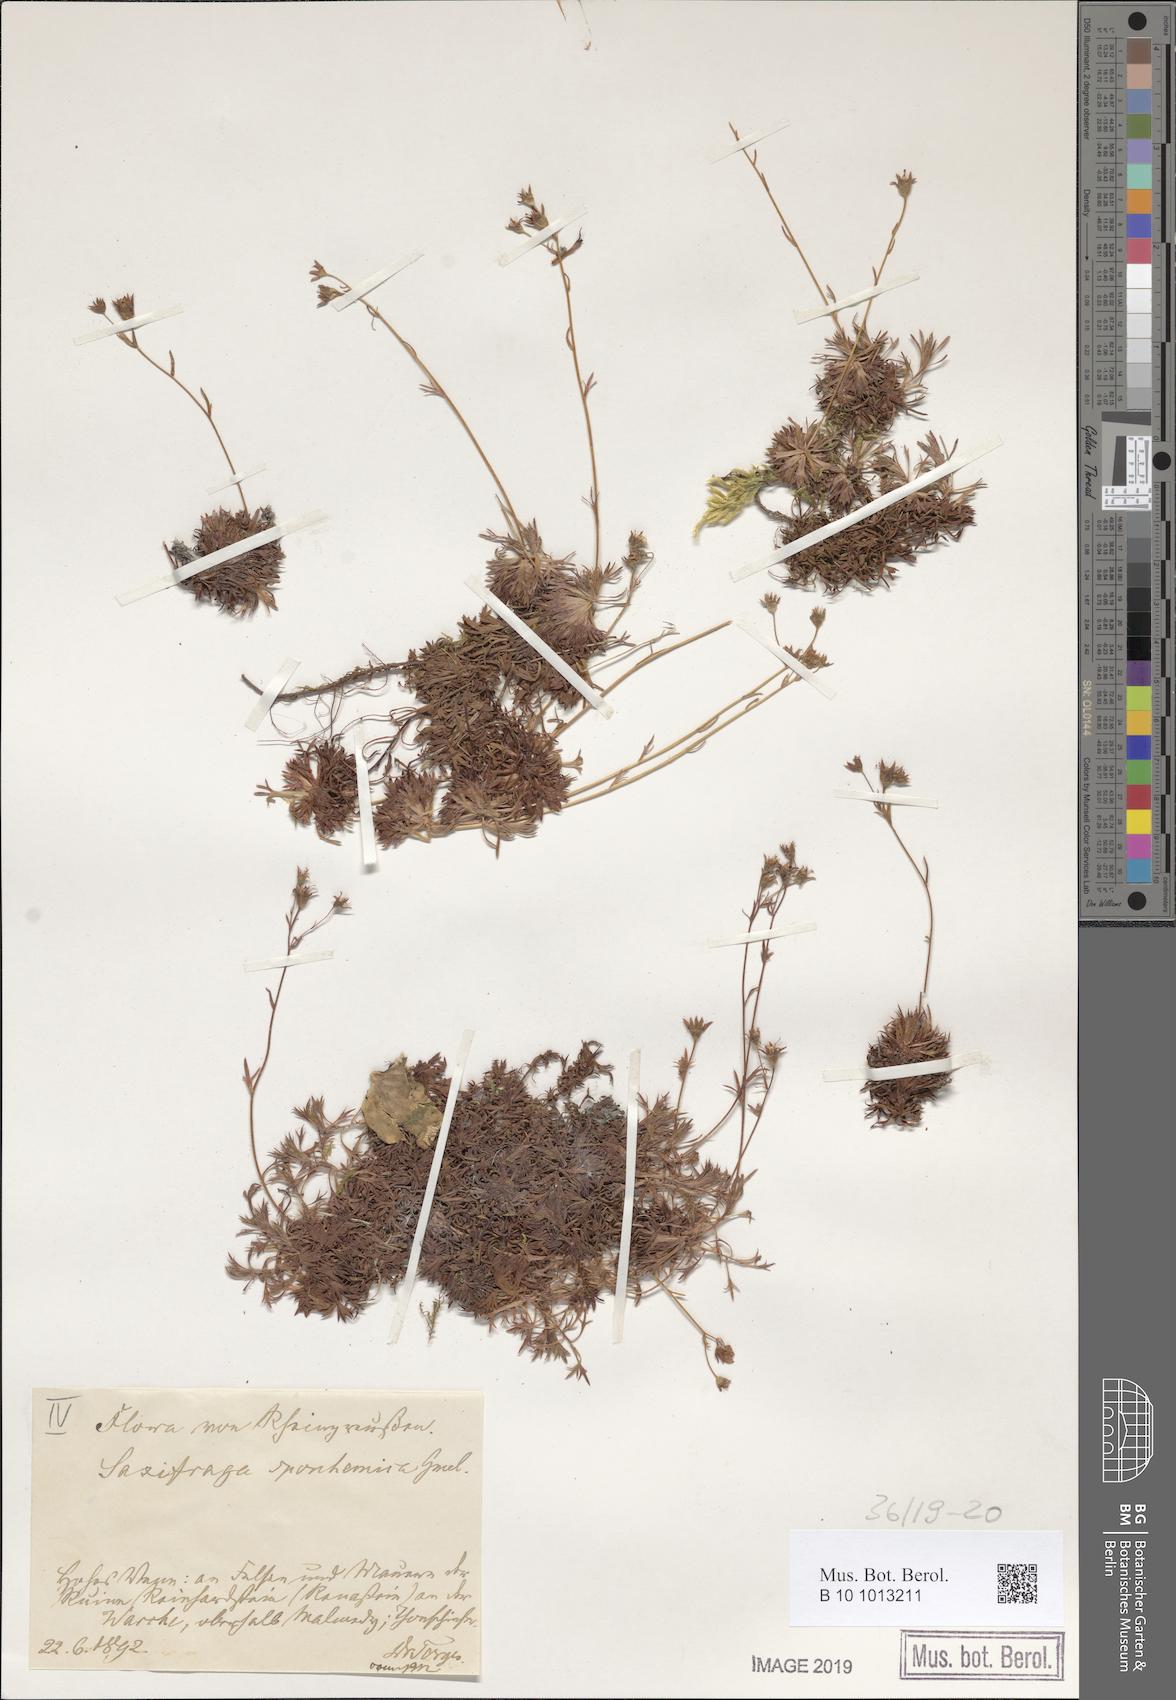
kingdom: Plantae
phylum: Tracheophyta
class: Magnoliopsida
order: Saxifragales
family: Saxifragaceae
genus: Saxifraga
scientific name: Saxifraga rosacea
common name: Irish saxifrage
